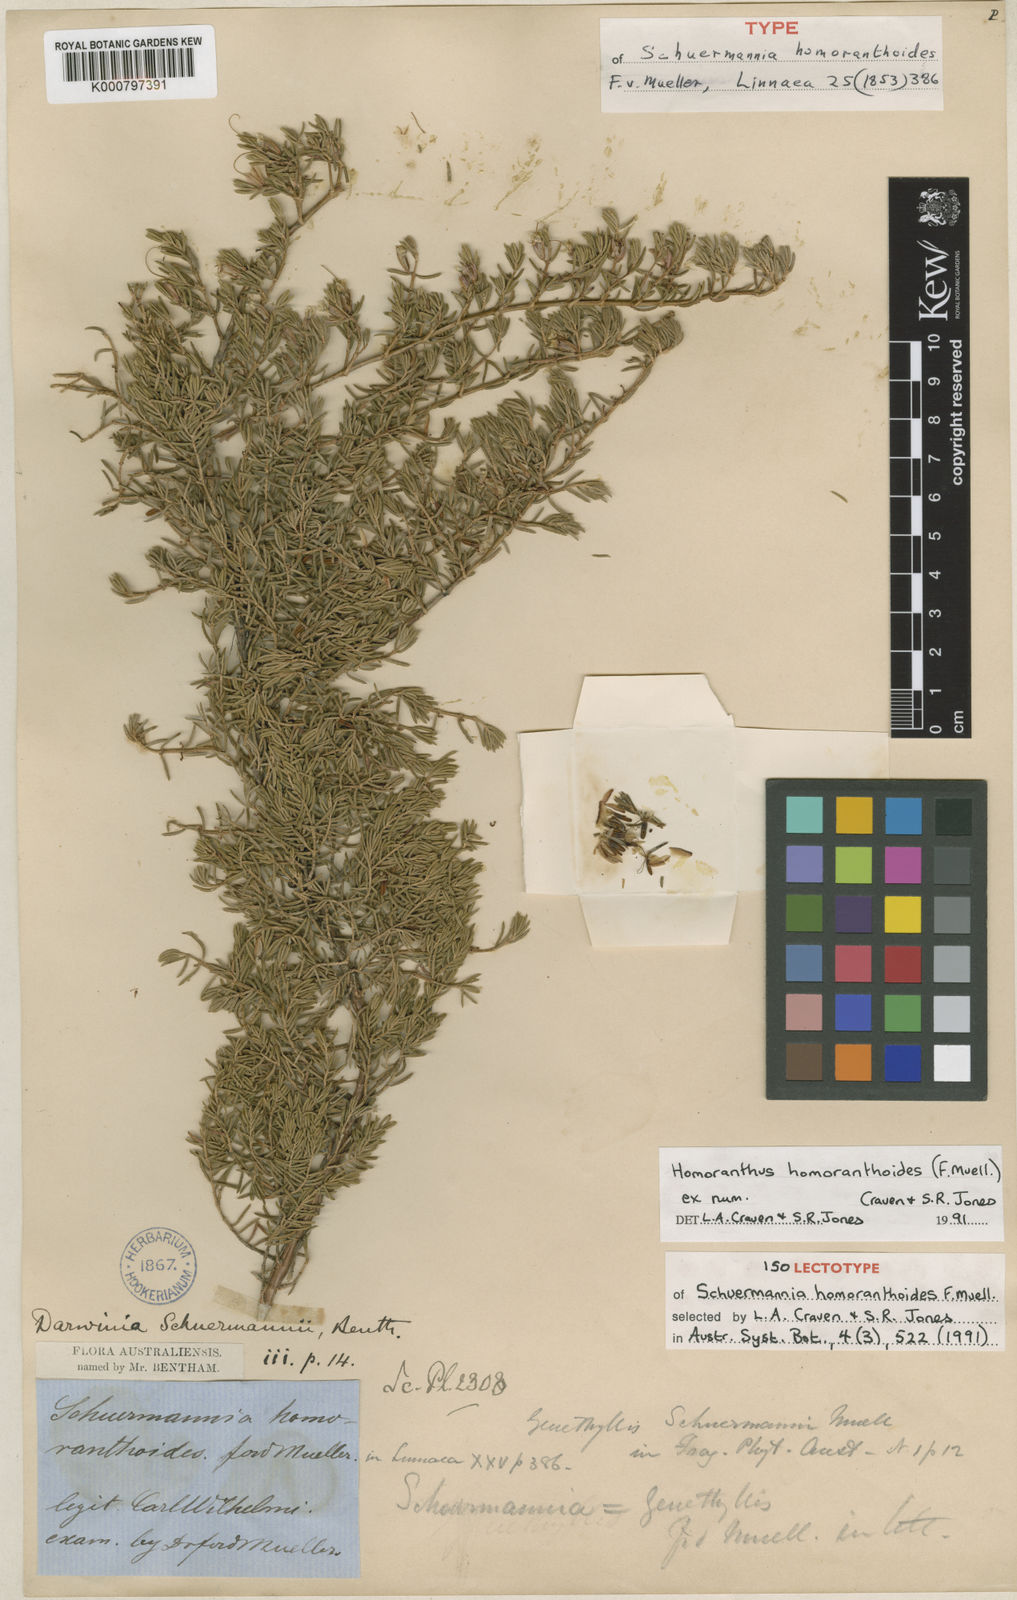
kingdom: Plantae
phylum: Tracheophyta
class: Magnoliopsida
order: Myrtales
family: Myrtaceae
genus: Homoranthus
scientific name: Homoranthus homoranthoides
